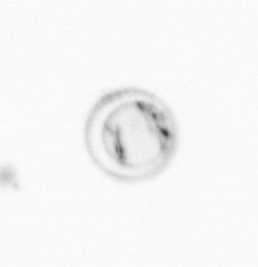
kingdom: Chromista
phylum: Myzozoa
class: Dinophyceae
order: Noctilucales
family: Noctilucaceae
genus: Noctiluca
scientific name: Noctiluca scintillans
